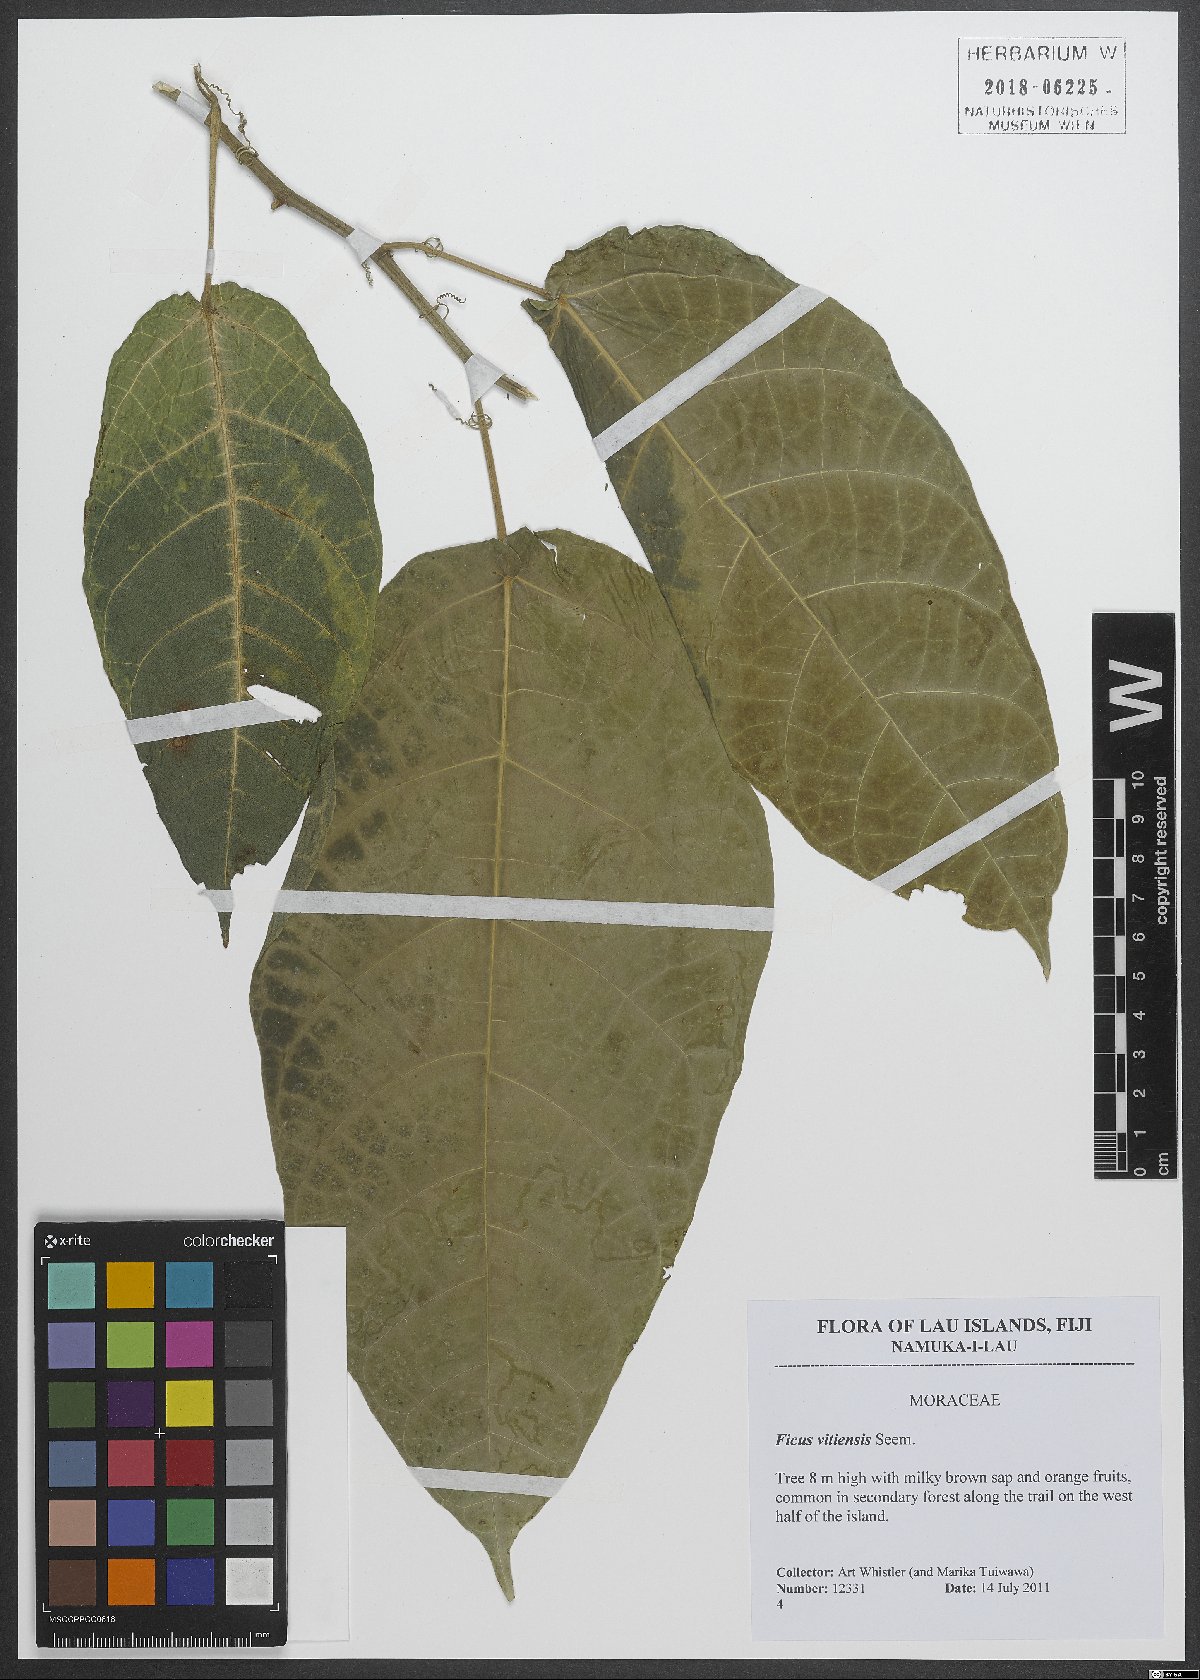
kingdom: Plantae
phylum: Tracheophyta
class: Magnoliopsida
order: Rosales
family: Moraceae
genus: Ficus
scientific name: Ficus vitiensis
